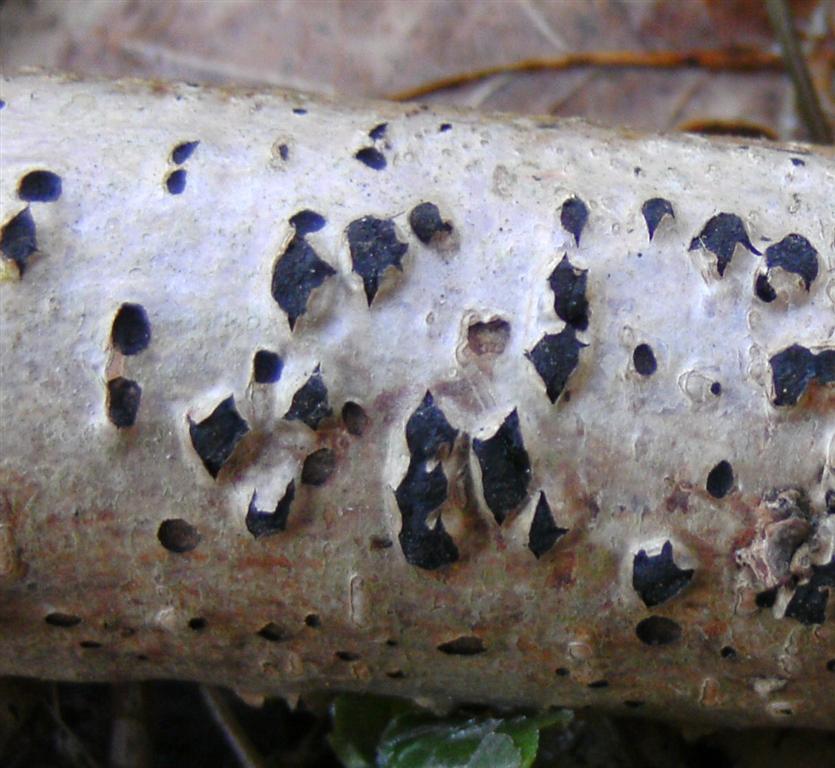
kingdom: Fungi
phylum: Ascomycota
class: Sordariomycetes
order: Xylariales
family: Diatrypaceae
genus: Diatrypella
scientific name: Diatrypella favacea
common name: Birch blackhead
